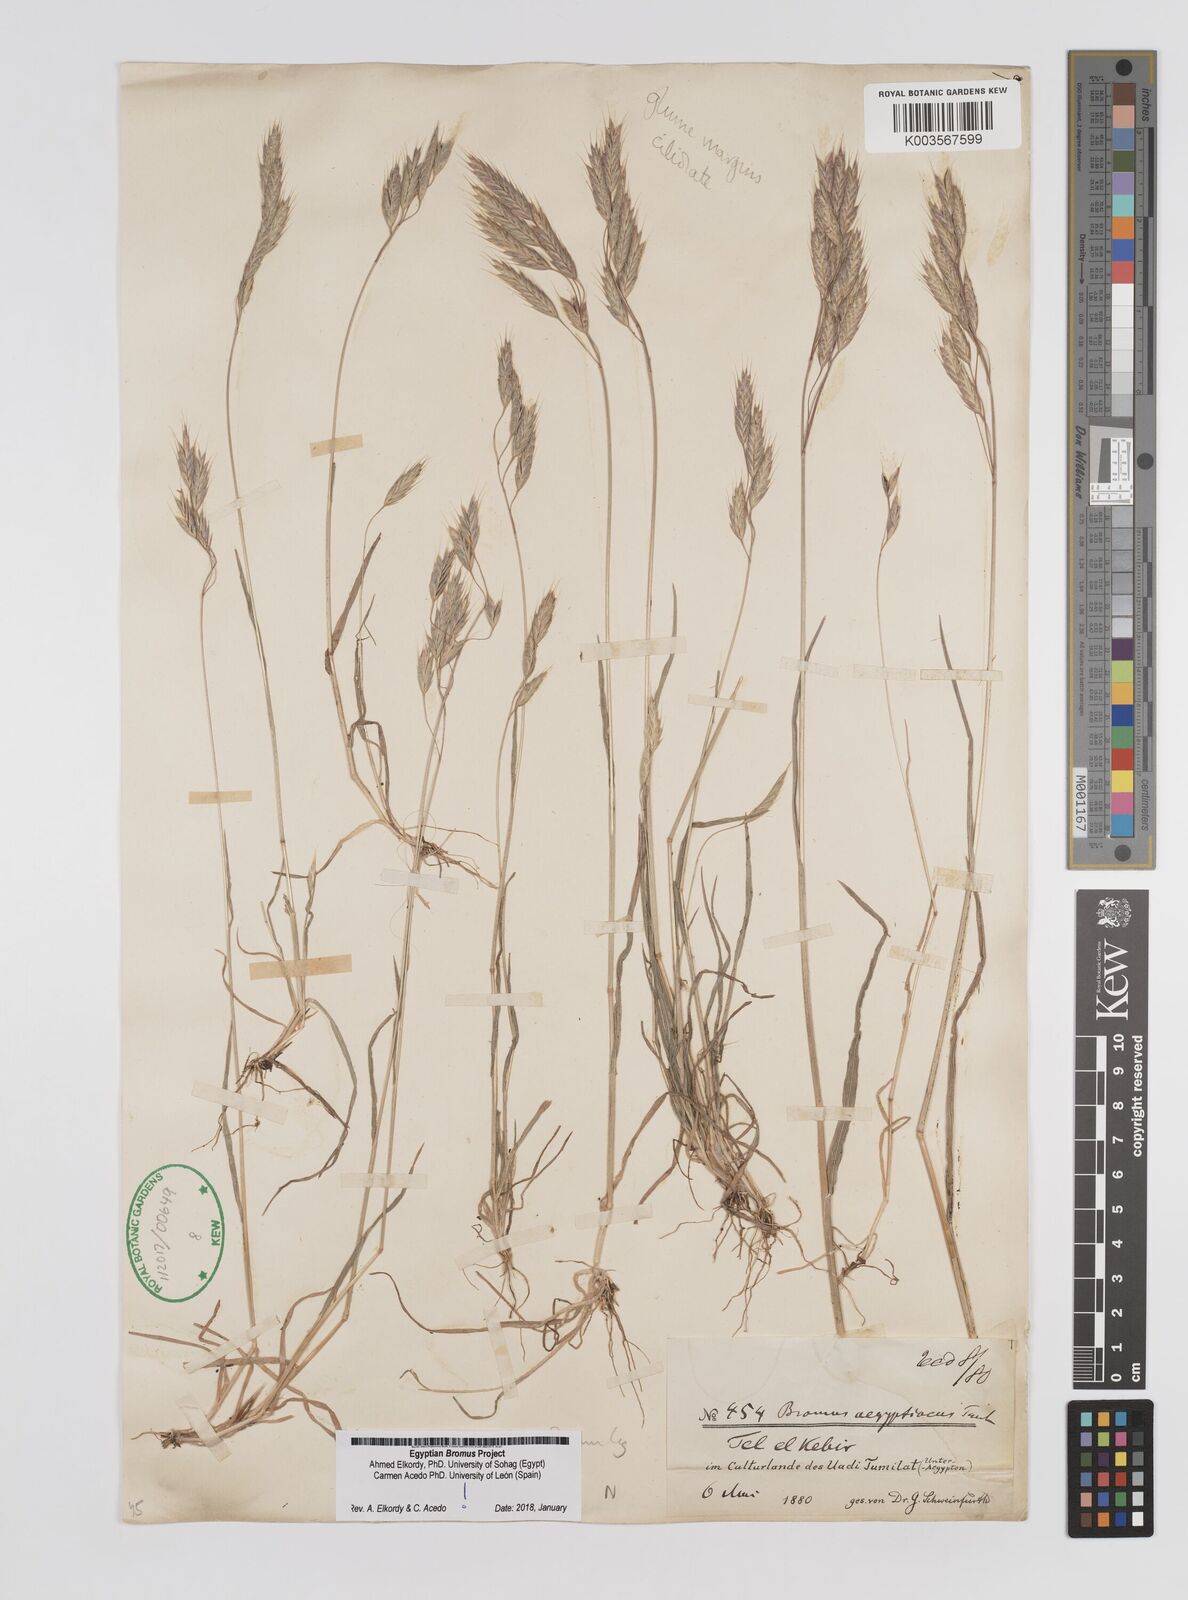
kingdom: Plantae
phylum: Tracheophyta
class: Liliopsida
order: Poales
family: Poaceae
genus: Bromus
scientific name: Bromus aegyptiacus
